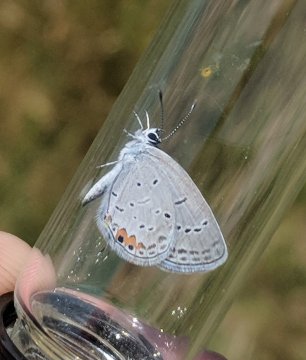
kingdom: Animalia
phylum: Arthropoda
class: Insecta
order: Lepidoptera
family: Lycaenidae
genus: Elkalyce
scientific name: Elkalyce comyntas
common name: Eastern Tailed-Blue
